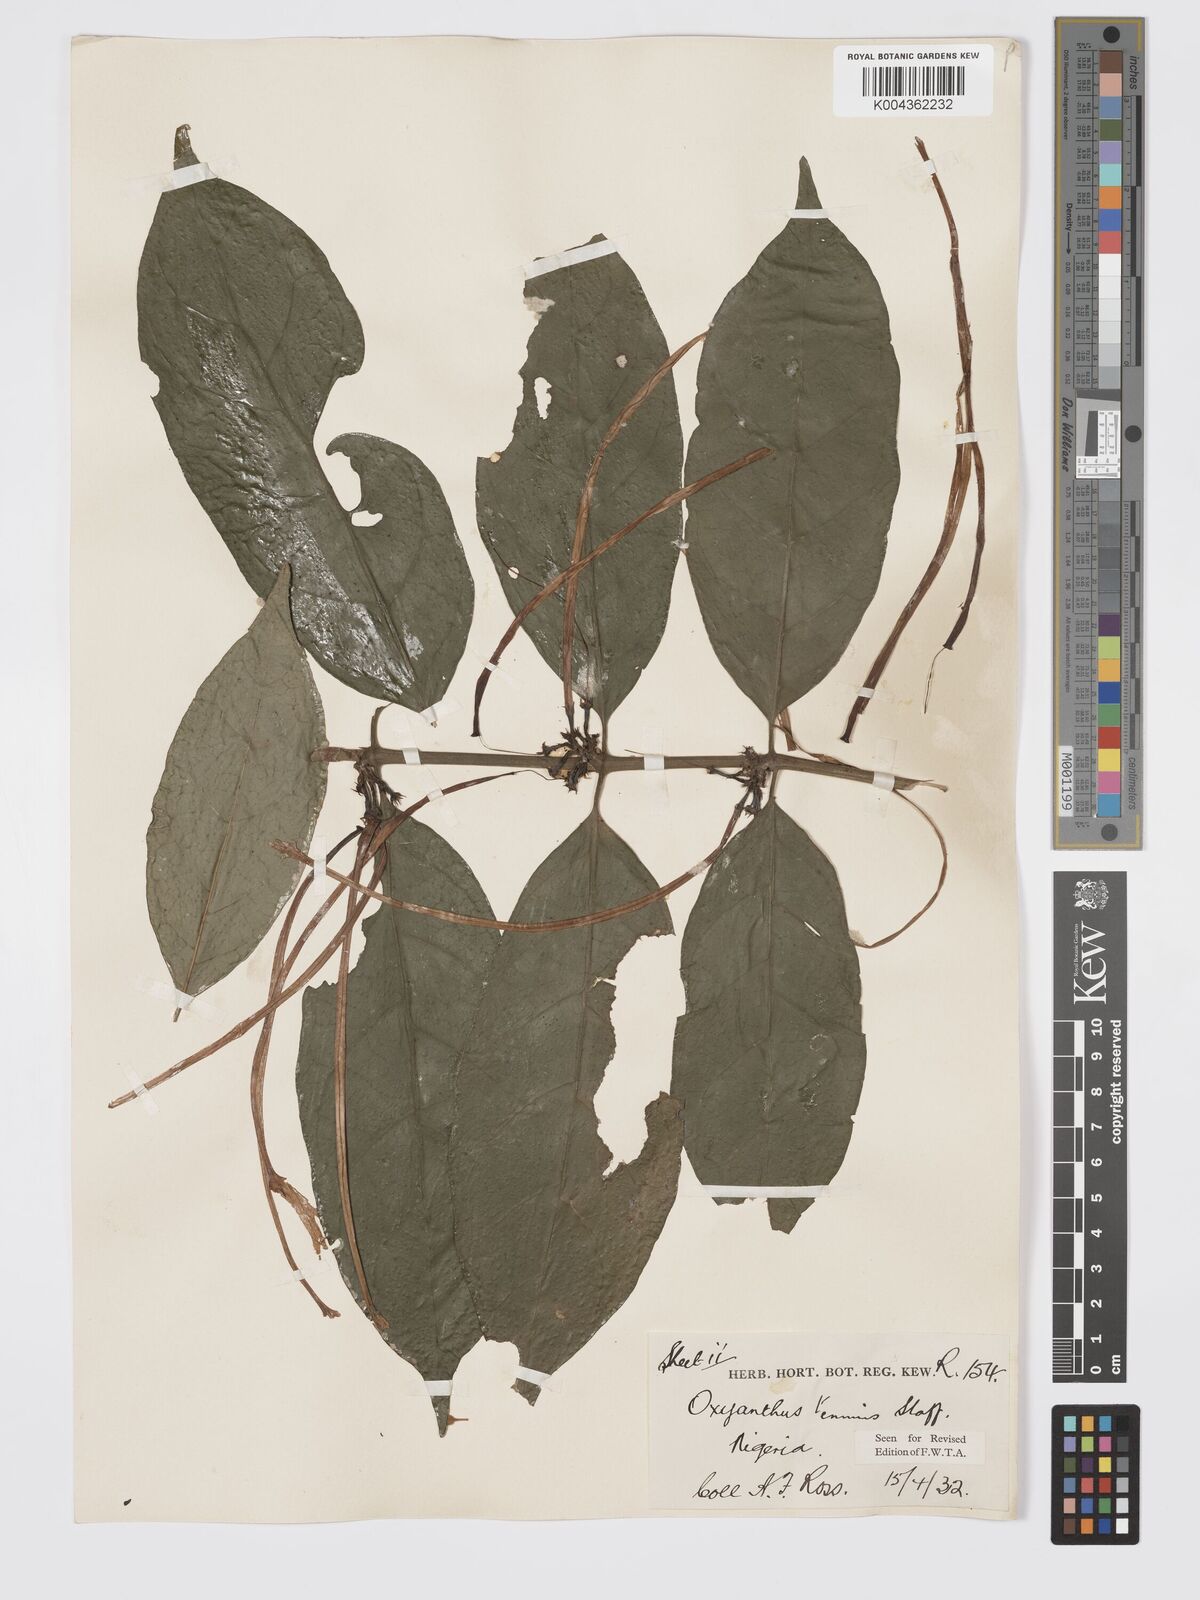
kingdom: Plantae
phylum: Tracheophyta
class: Magnoliopsida
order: Gentianales
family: Rubiaceae
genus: Oxyanthus
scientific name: Oxyanthus subpunctatus
